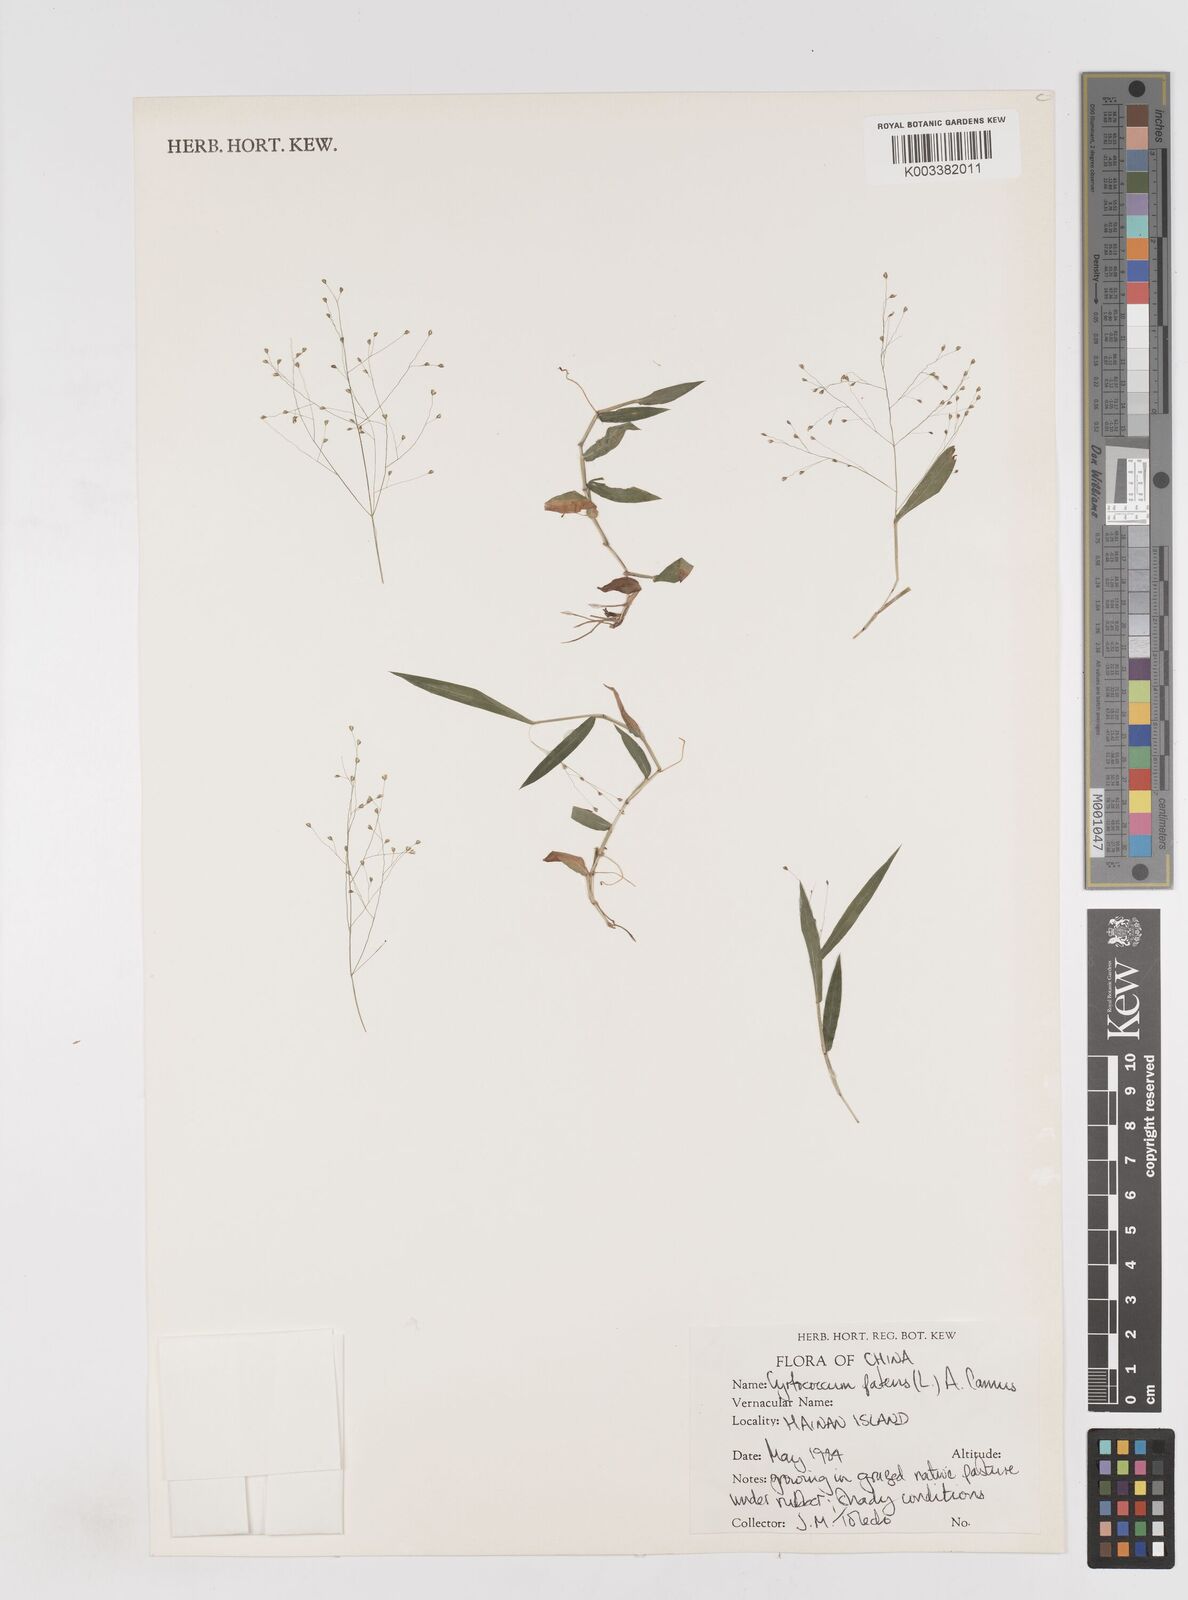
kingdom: Plantae
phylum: Tracheophyta
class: Liliopsida
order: Poales
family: Poaceae
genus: Cyrtococcum
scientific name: Cyrtococcum patens
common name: Broad-leaved bowgrass
